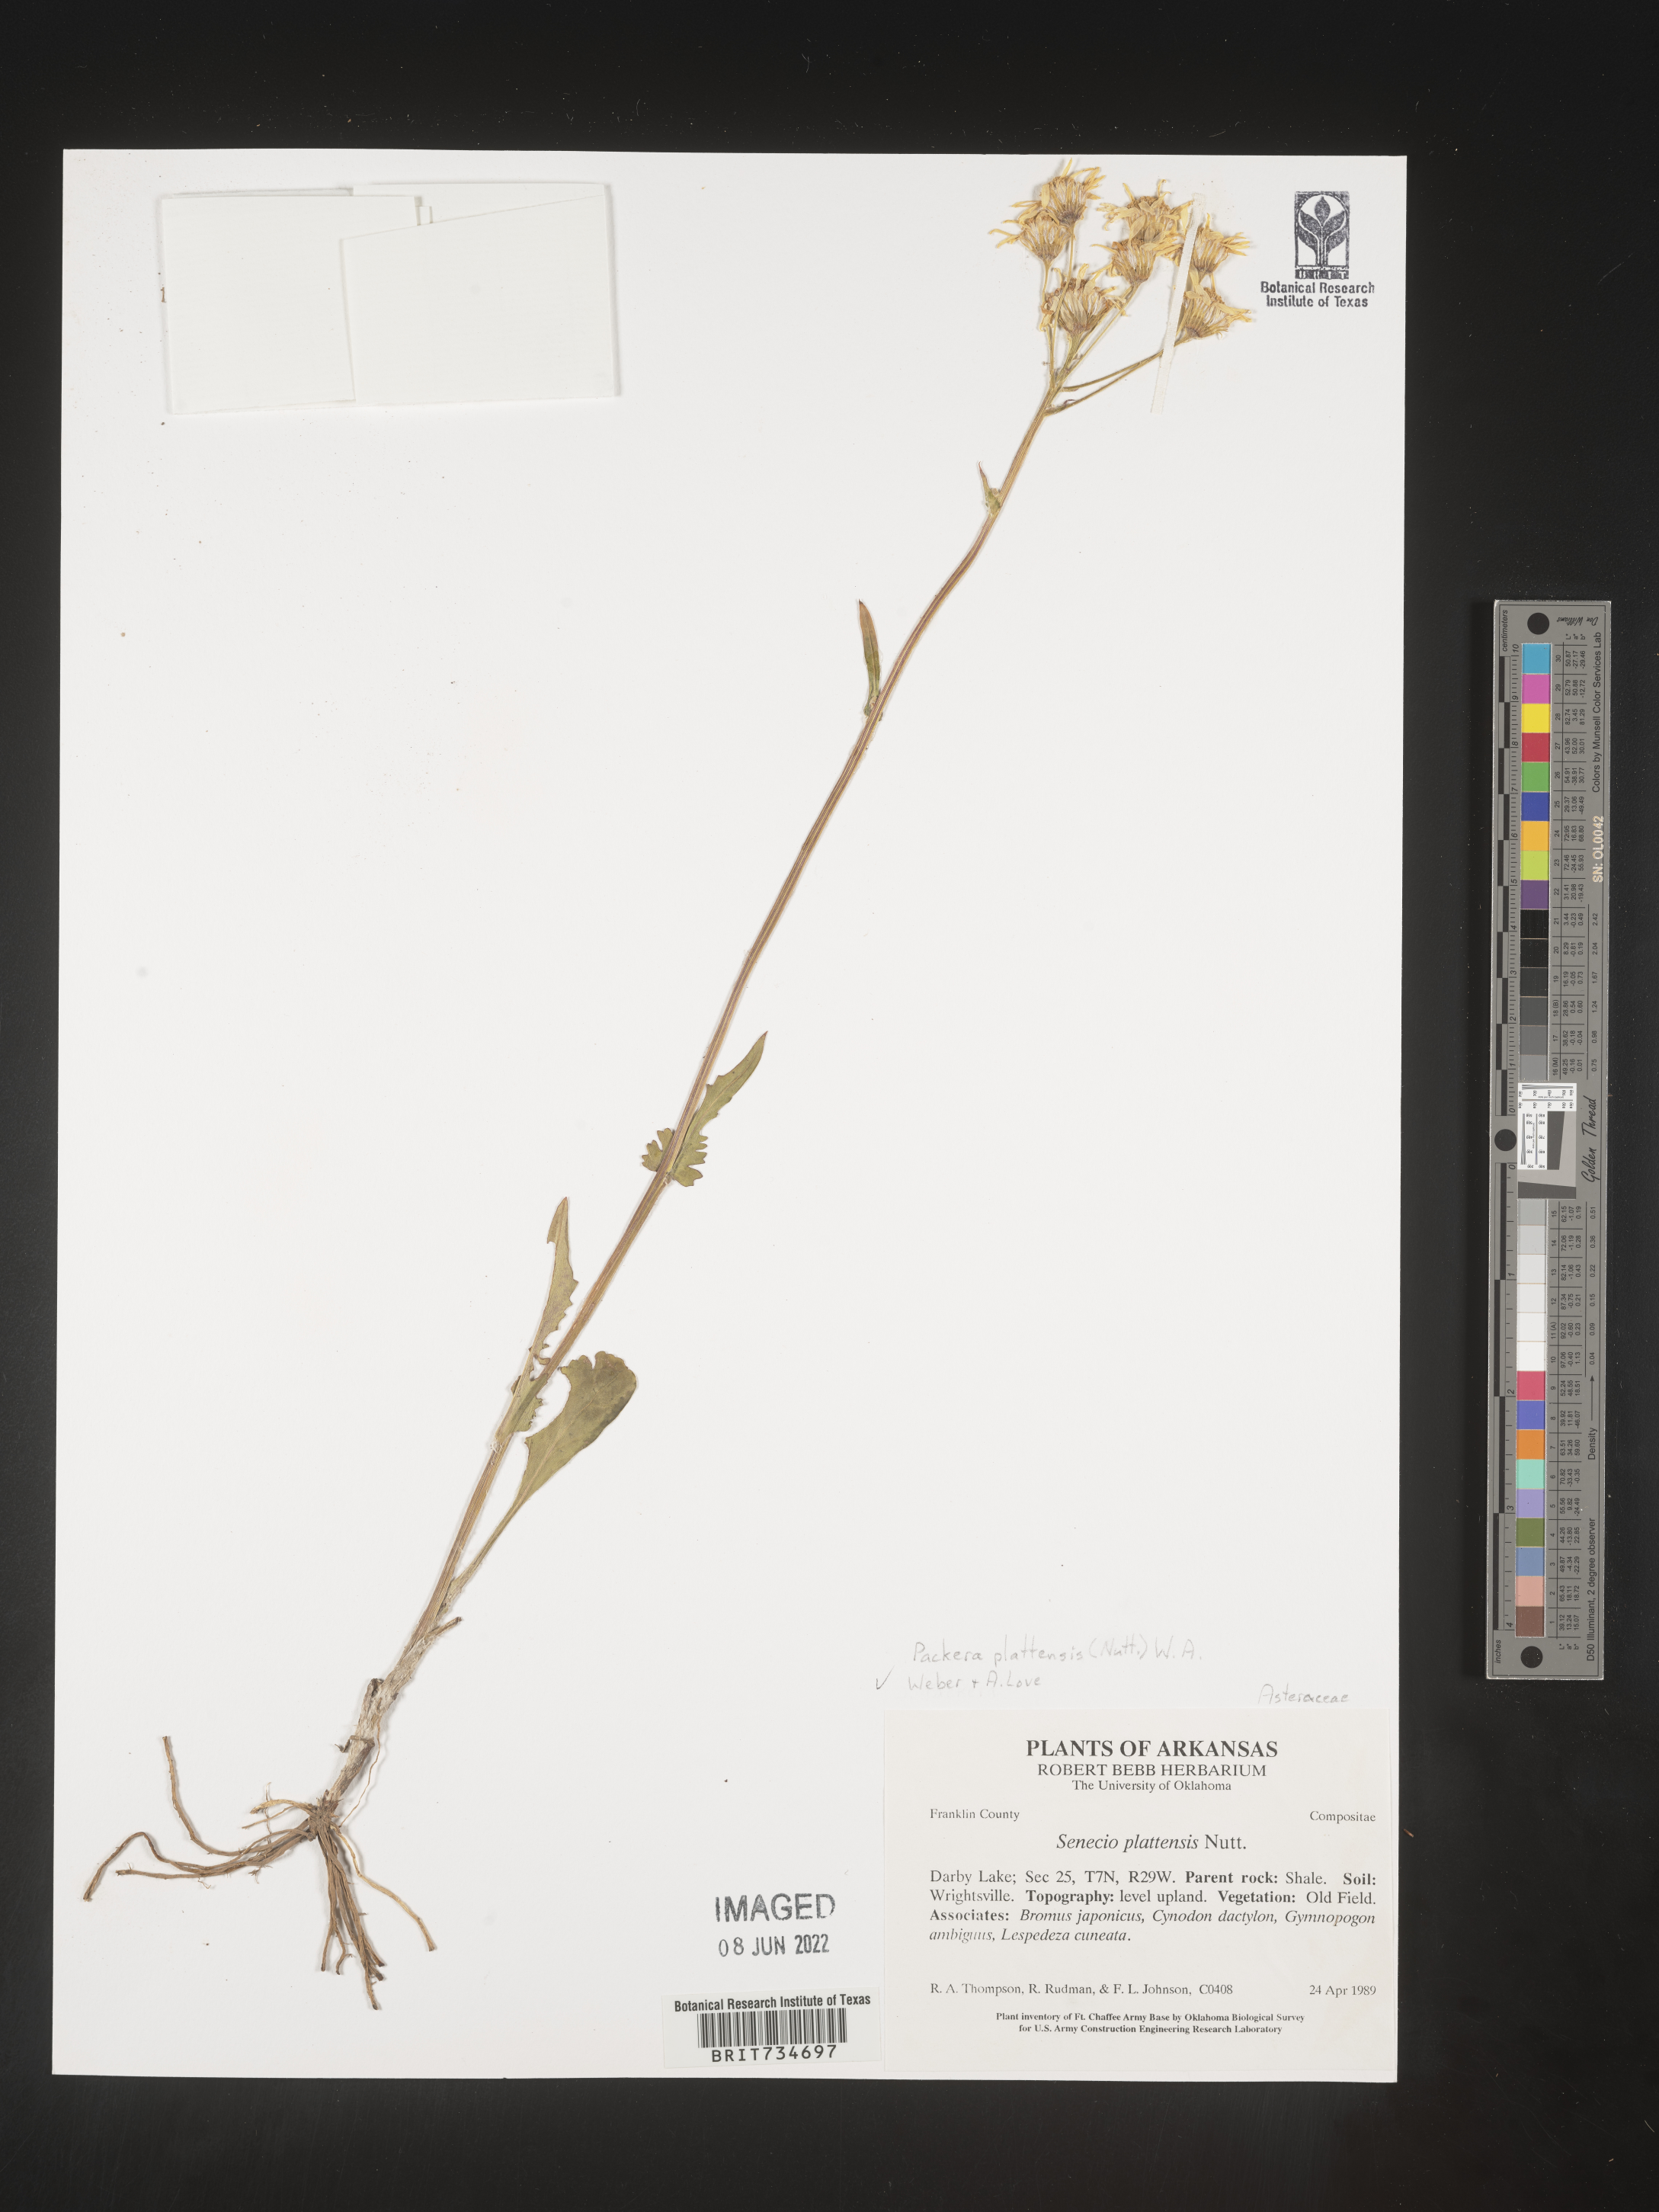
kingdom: Plantae
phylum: Tracheophyta
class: Magnoliopsida
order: Asterales
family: Asteraceae
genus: Packera
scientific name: Packera plattensis
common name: Prairie groundsel
